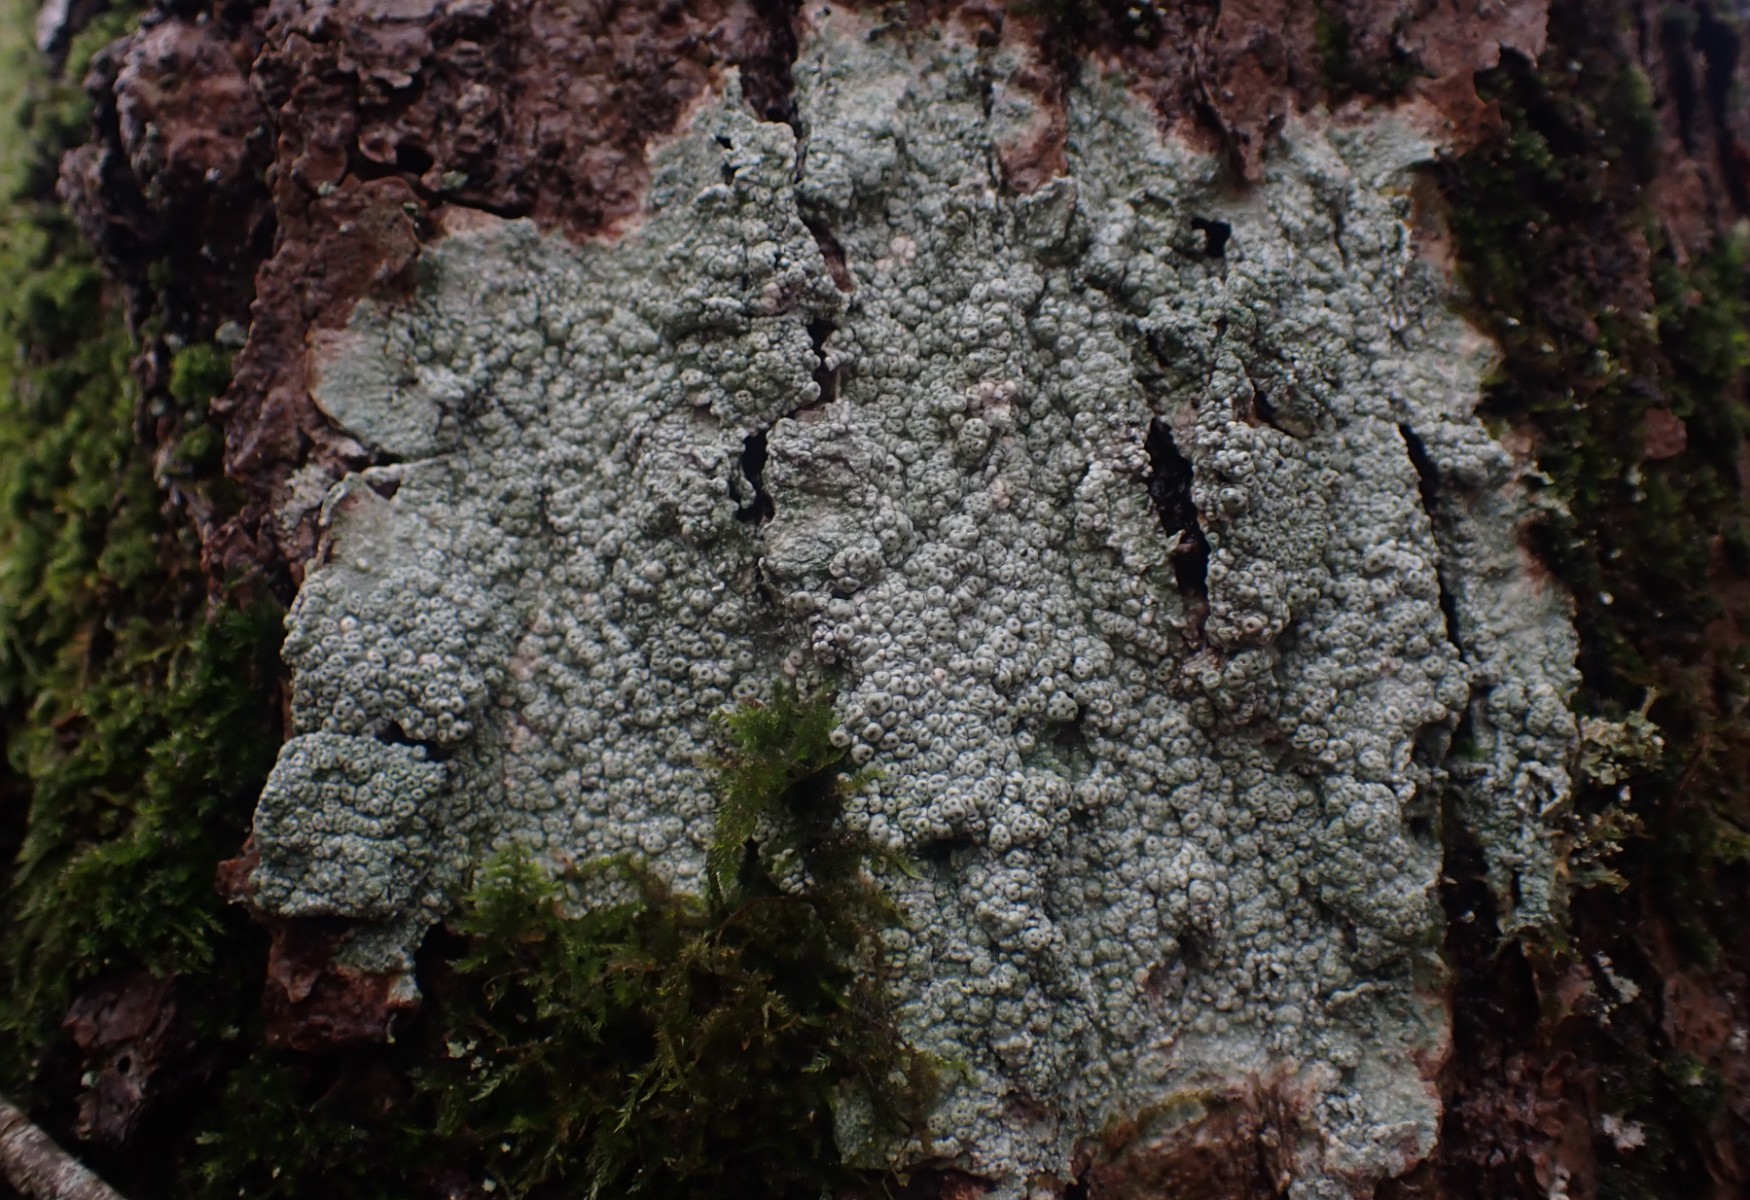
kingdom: Fungi
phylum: Ascomycota
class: Lecanoromycetes
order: Pertusariales
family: Pertusariaceae
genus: Pertusaria
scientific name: Pertusaria pertusa
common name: almindelig prikvortelav
